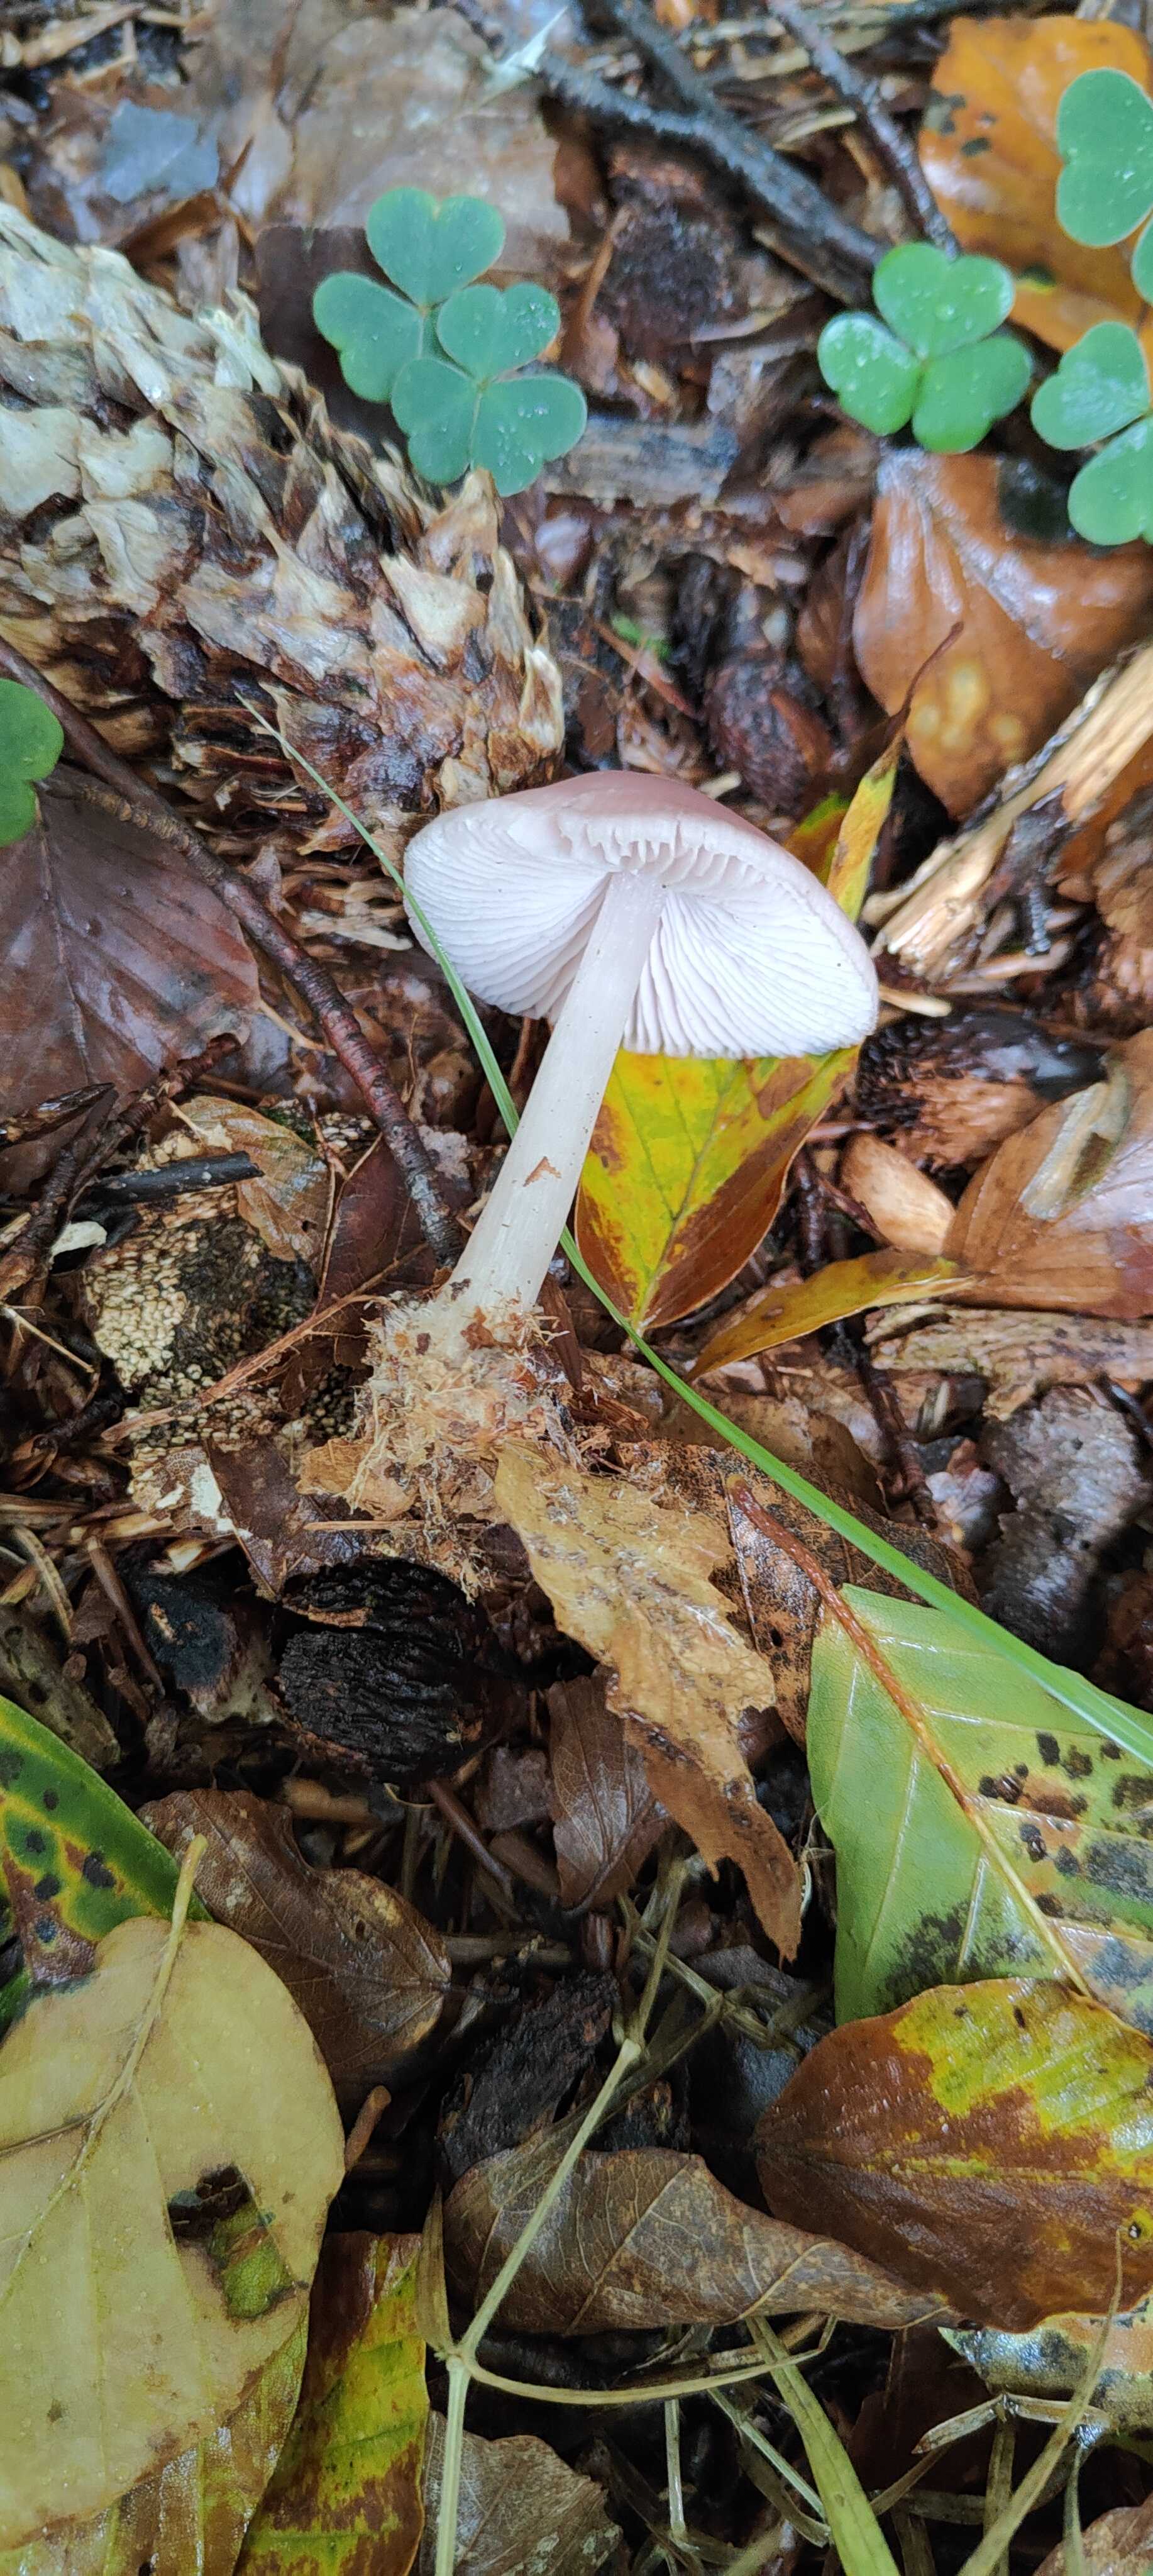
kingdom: Fungi
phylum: Basidiomycota
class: Agaricomycetes
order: Agaricales
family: Mycenaceae
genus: Mycena
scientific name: Mycena rosea
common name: rosa huesvamp
